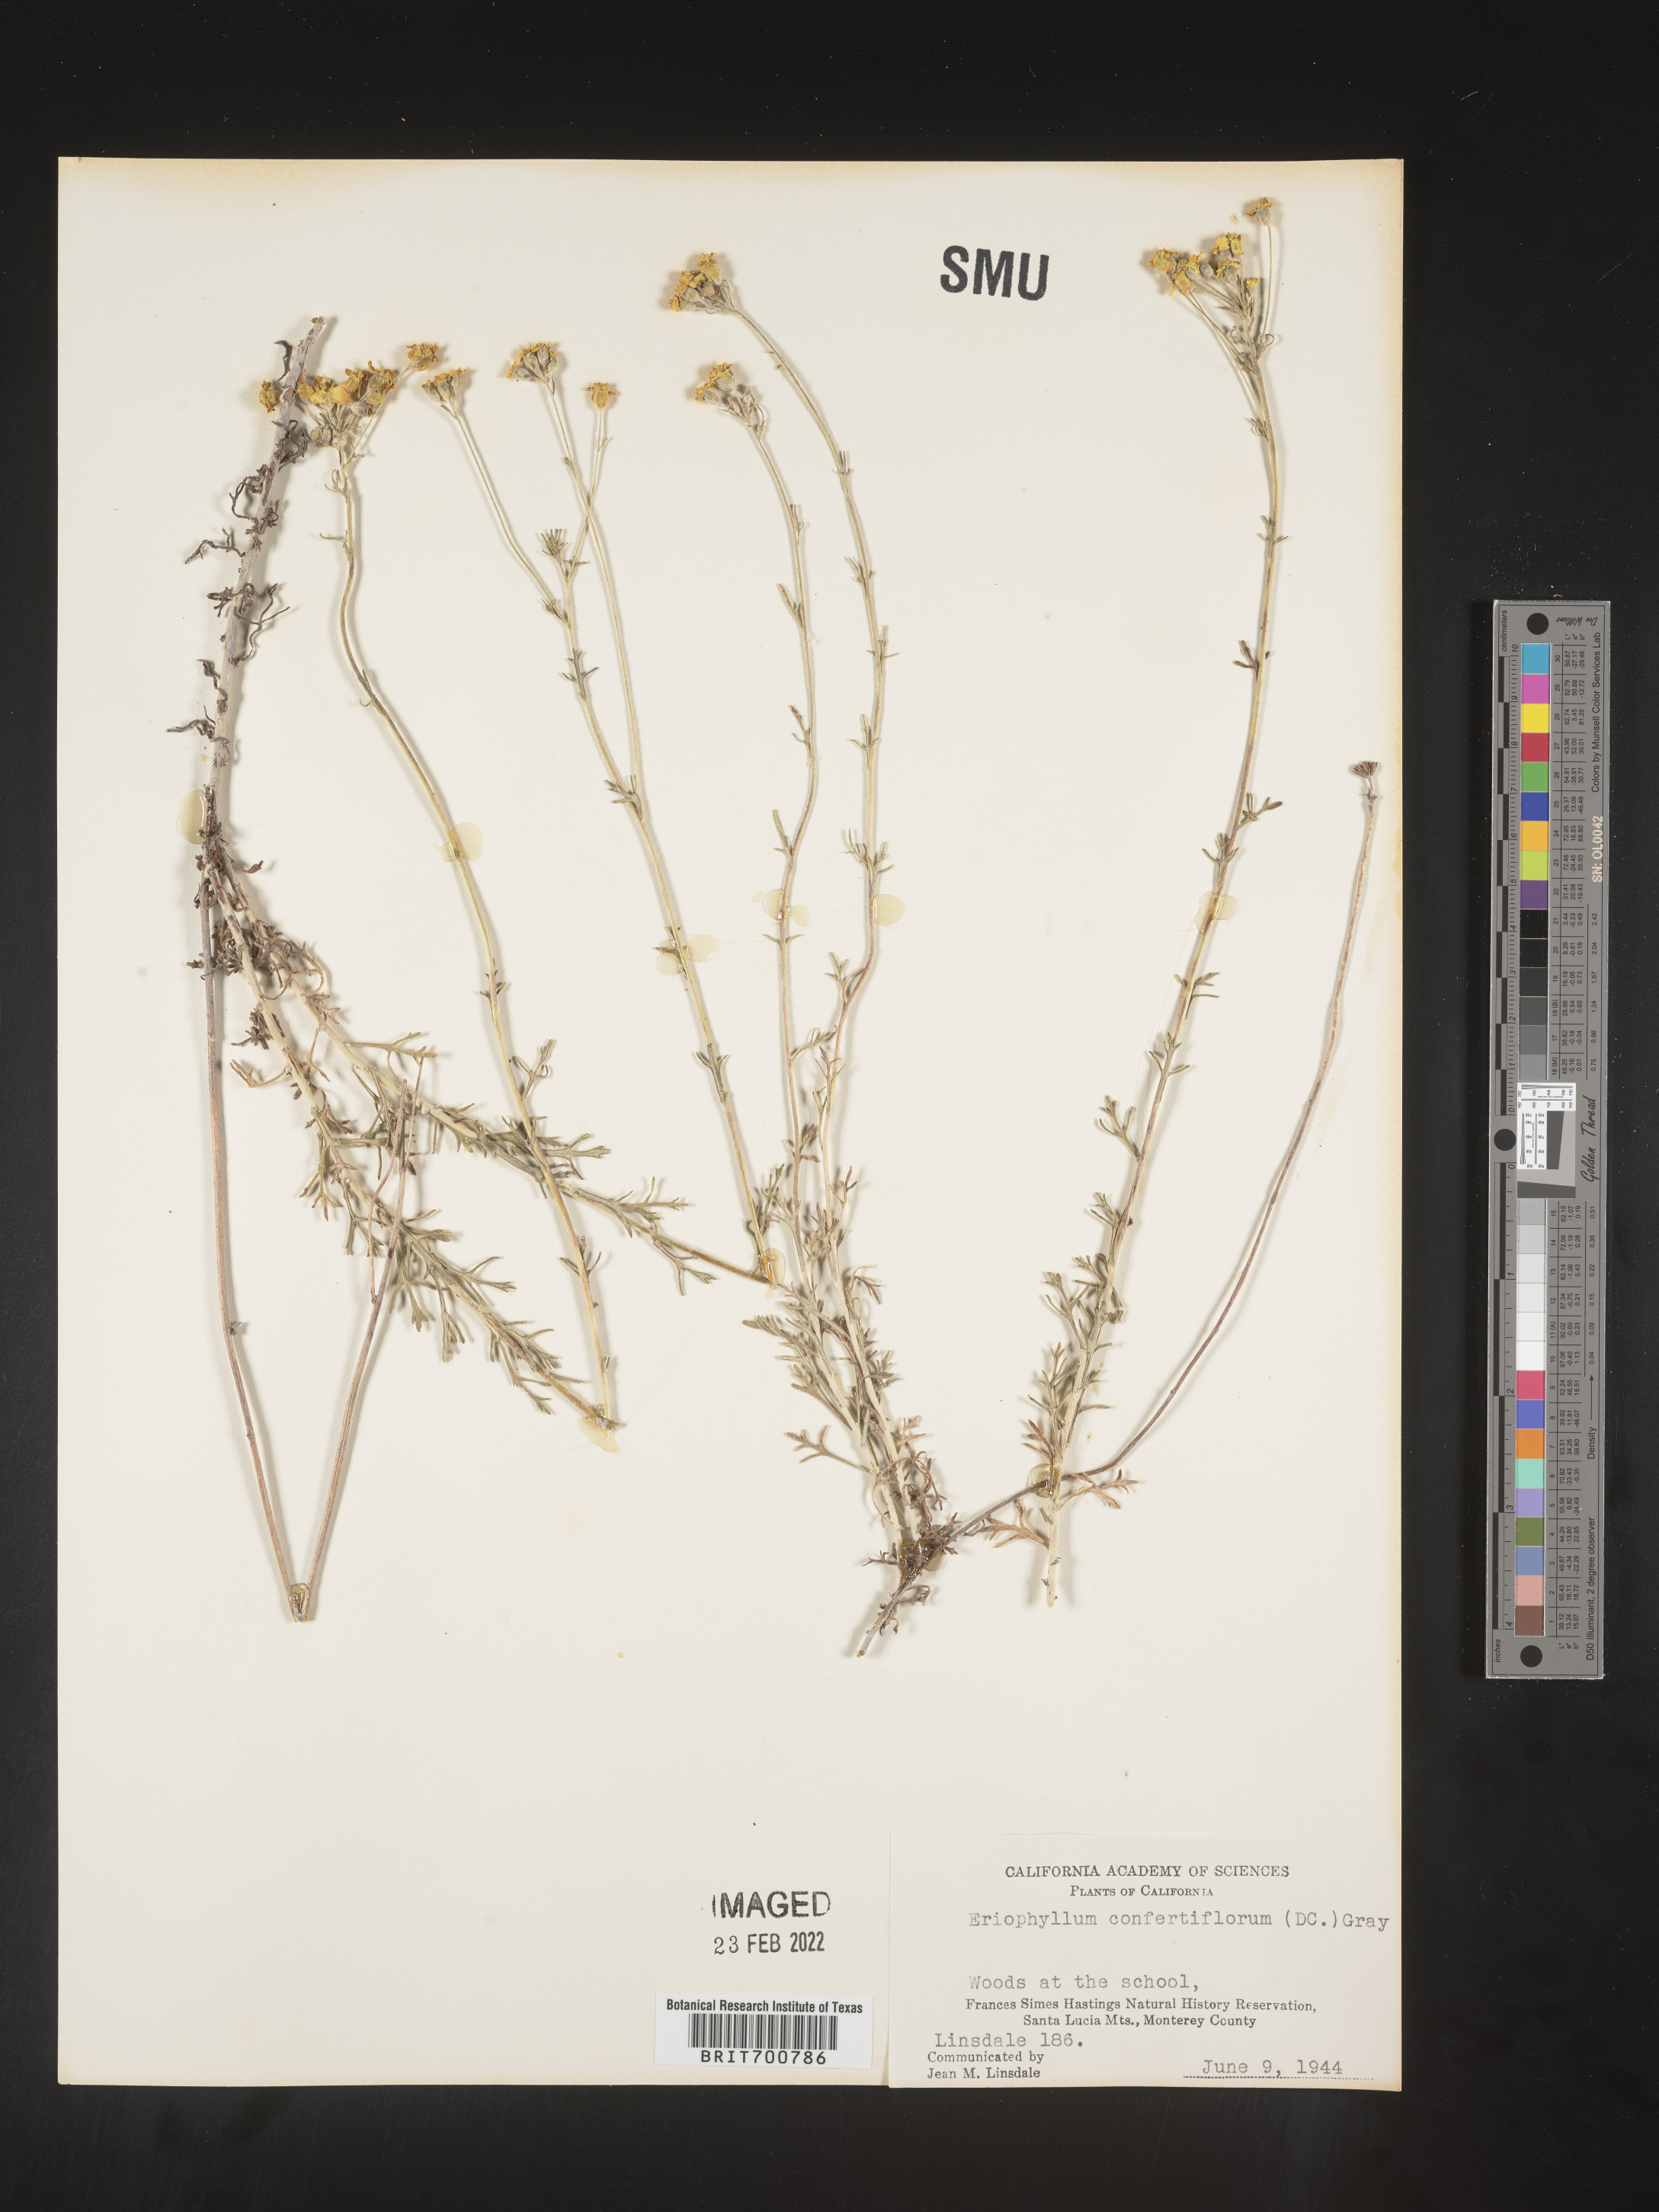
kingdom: Plantae
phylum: Tracheophyta
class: Magnoliopsida
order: Asterales
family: Asteraceae
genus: Eriophyllum
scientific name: Eriophyllum confertiflorum
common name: Golden-yarrow
